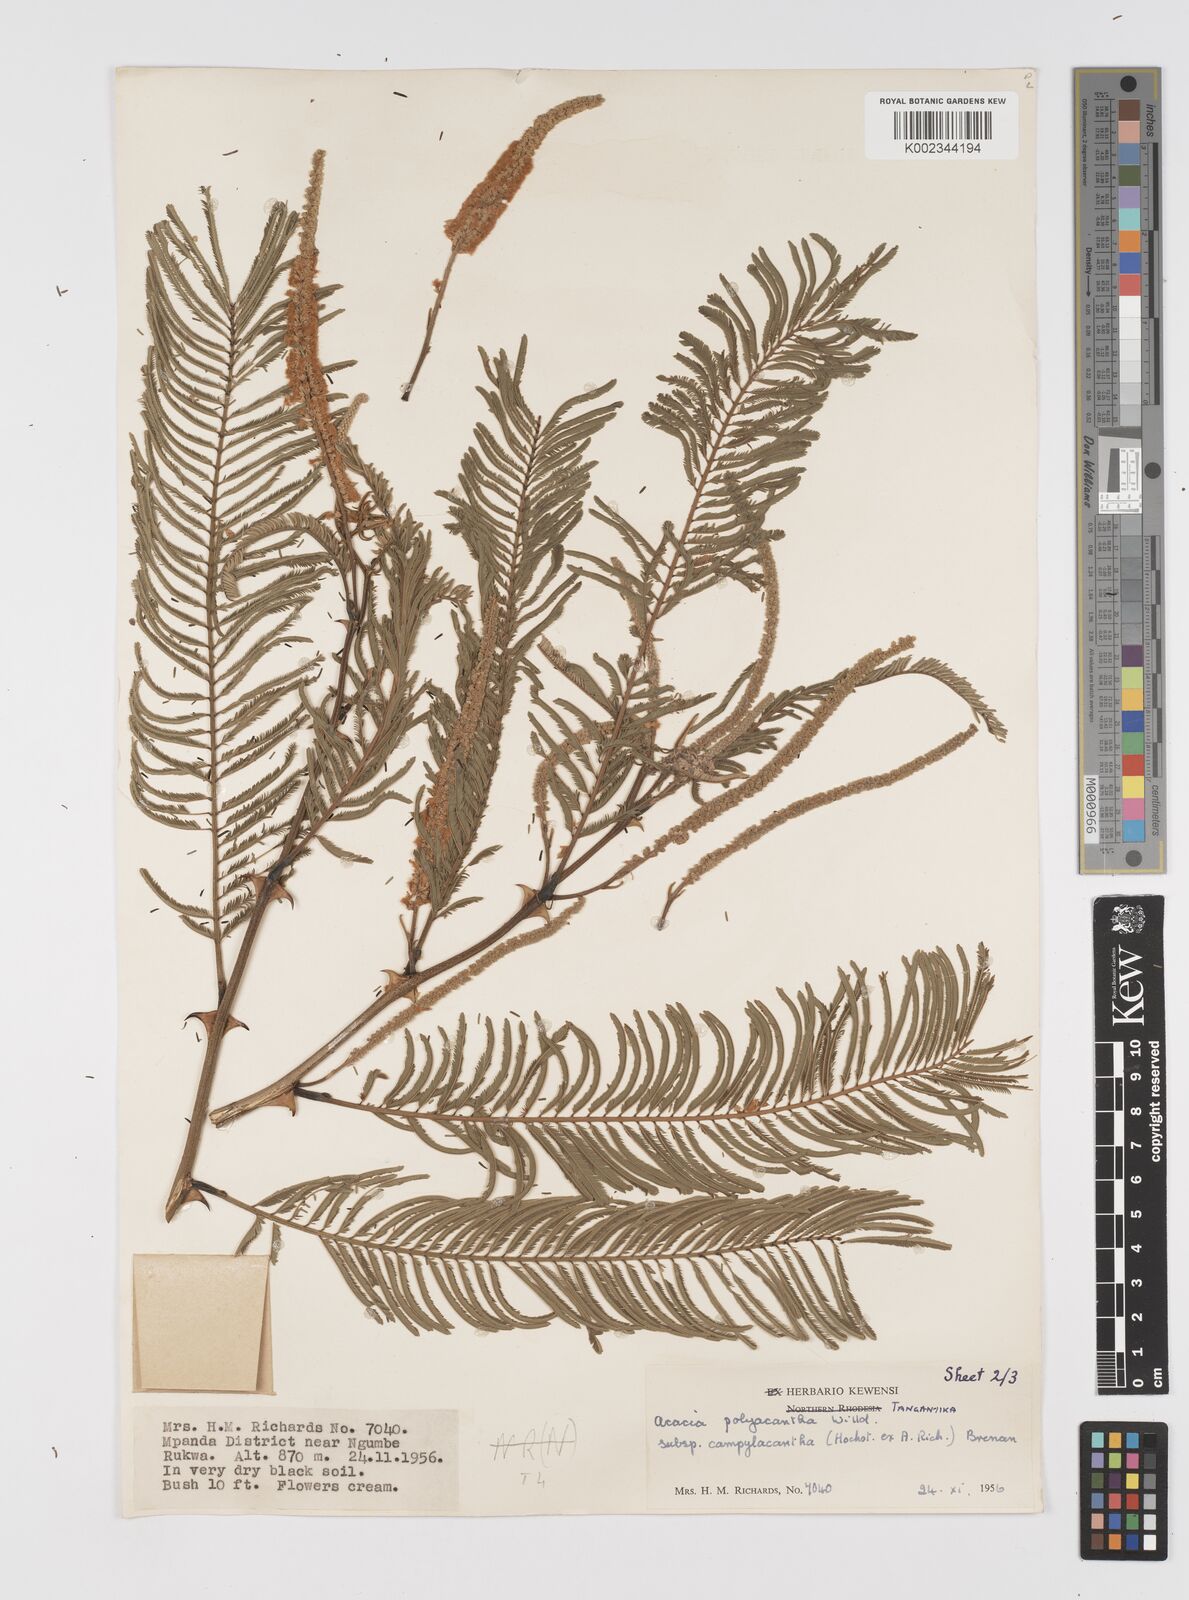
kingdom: Plantae
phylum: Tracheophyta
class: Magnoliopsida
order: Fabales
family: Fabaceae
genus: Senegalia
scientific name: Senegalia polyacantha
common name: Whitethorn
